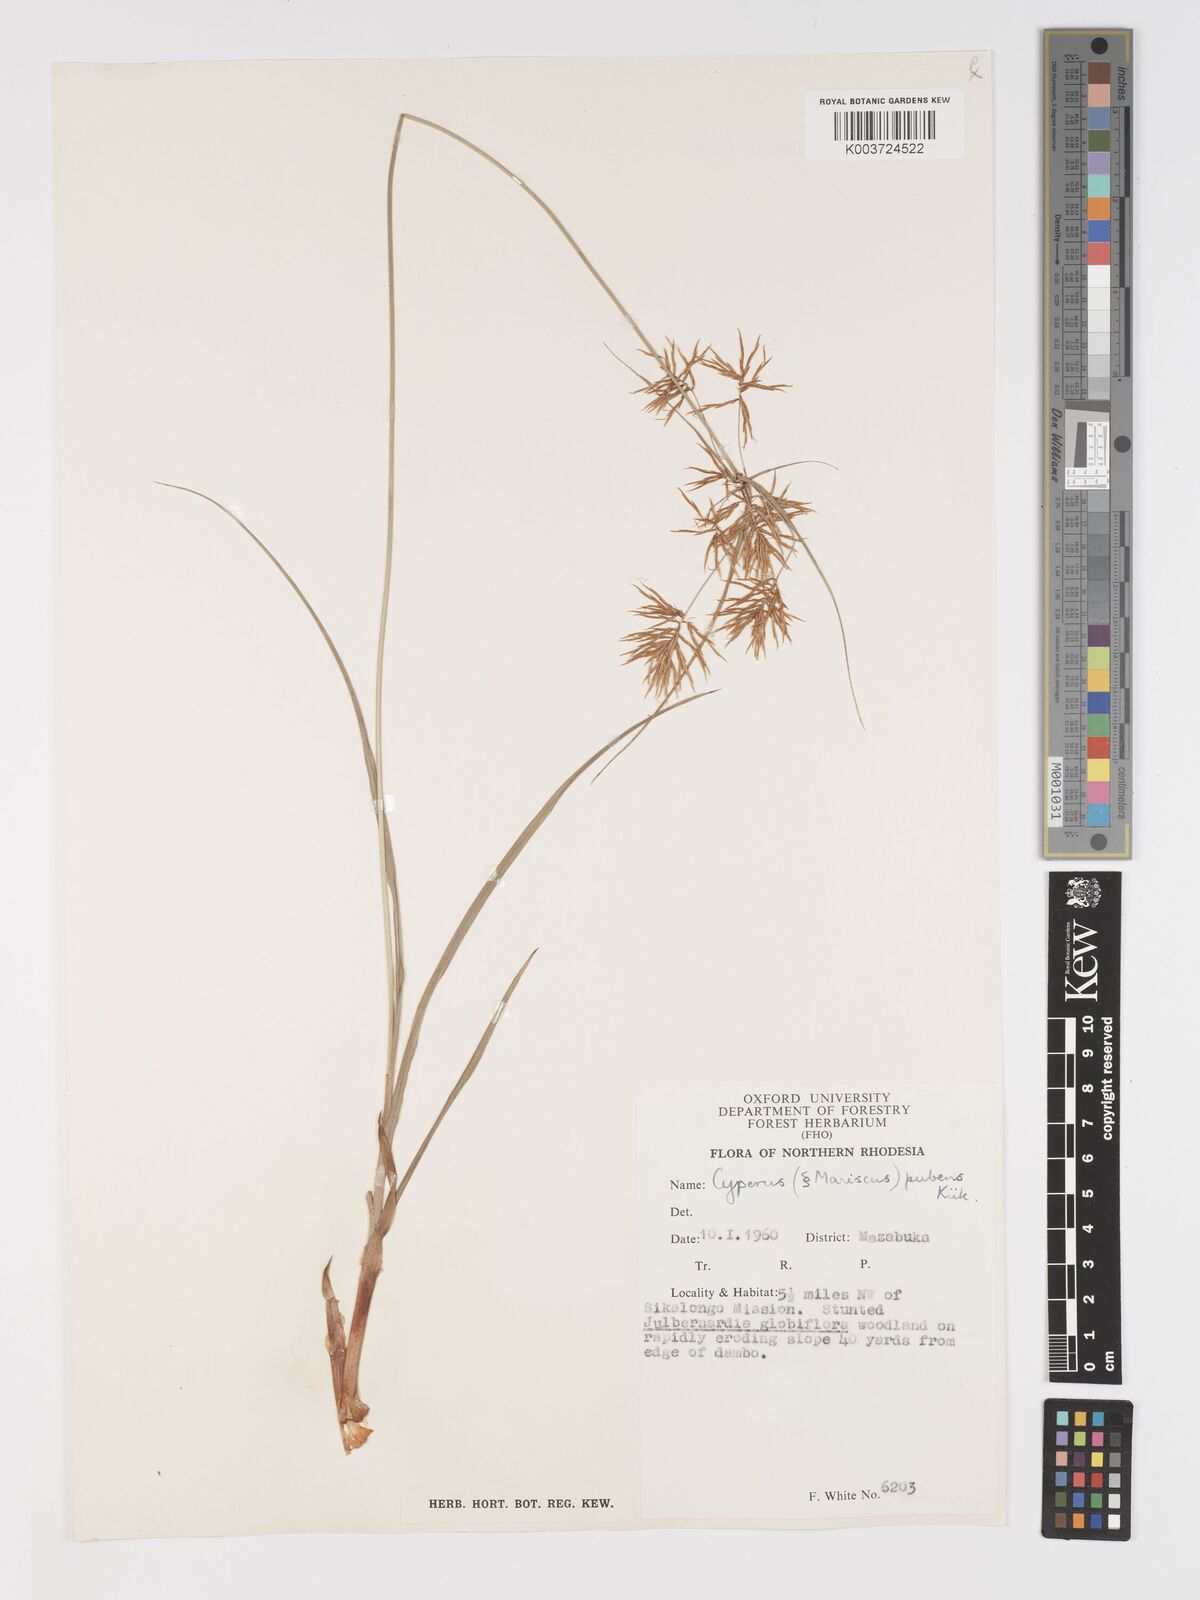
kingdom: Plantae
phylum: Tracheophyta
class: Liliopsida
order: Poales
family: Cyperaceae
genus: Cyperus
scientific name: Cyperus pubens
